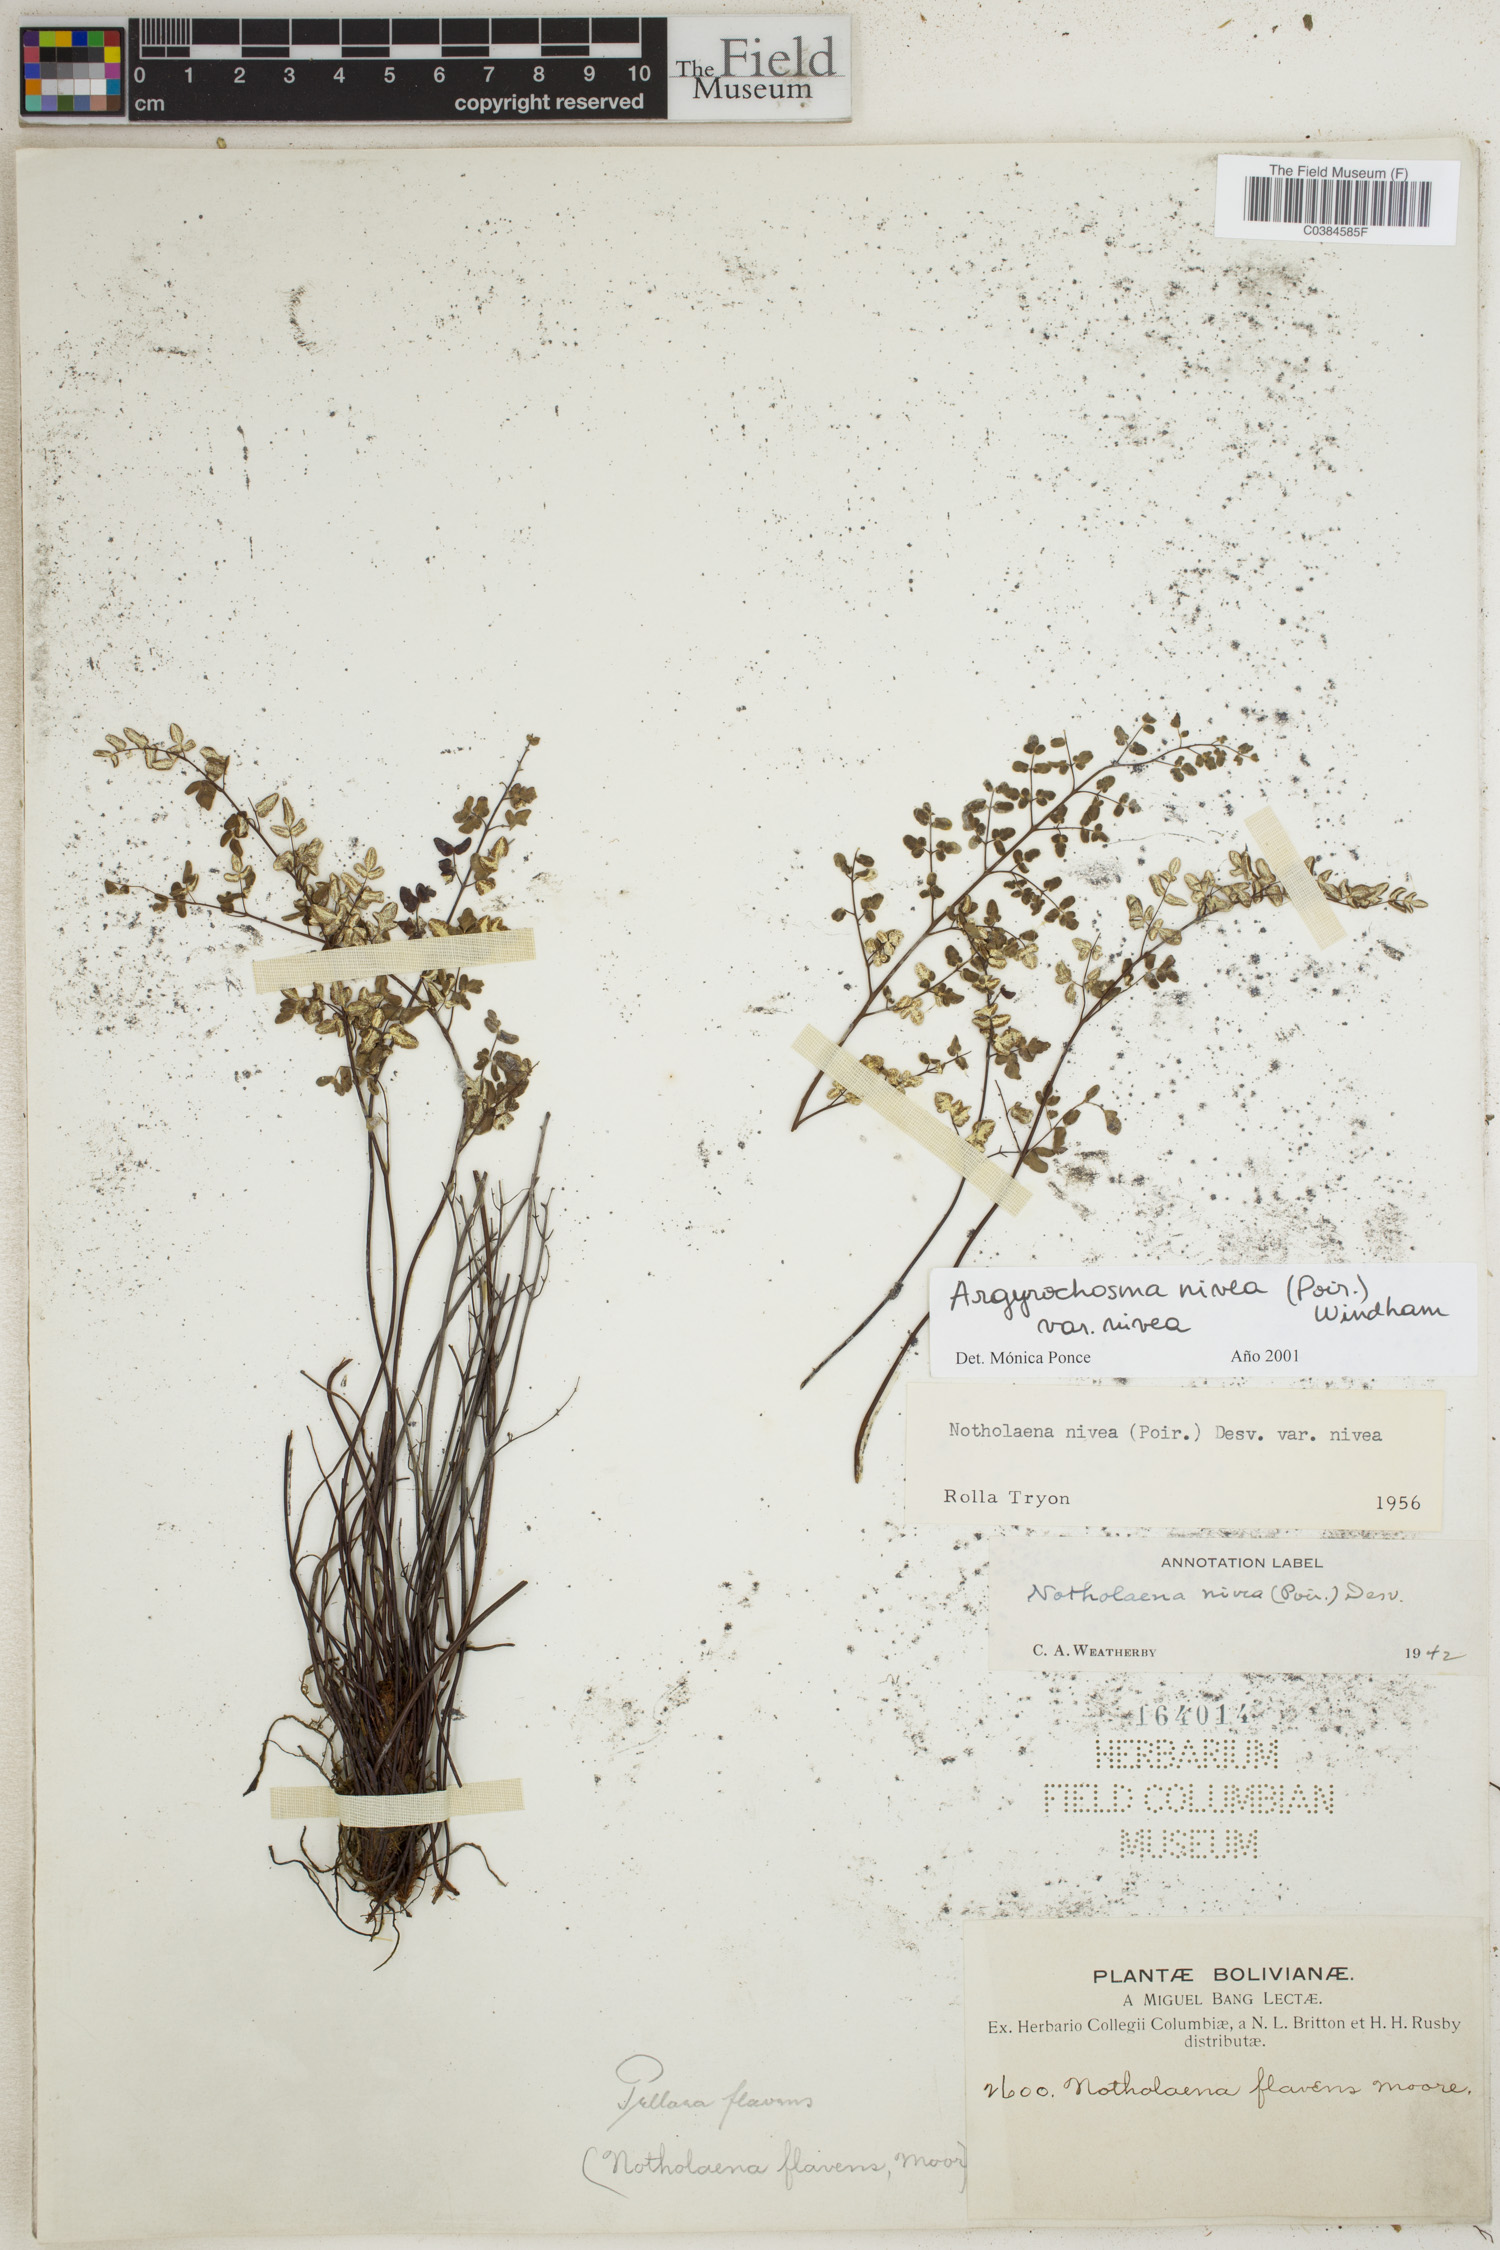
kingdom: Plantae
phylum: Tracheophyta
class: Polypodiopsida
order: Polypodiales
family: Pteridaceae
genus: Argyrochosma
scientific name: Argyrochosma nivea
